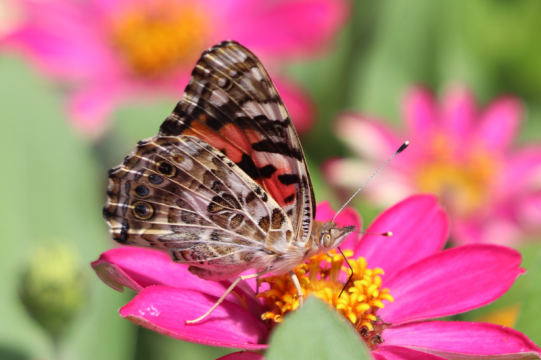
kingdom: Animalia
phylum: Arthropoda
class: Insecta
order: Lepidoptera
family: Nymphalidae
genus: Vanessa
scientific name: Vanessa cardui
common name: Painted Lady
